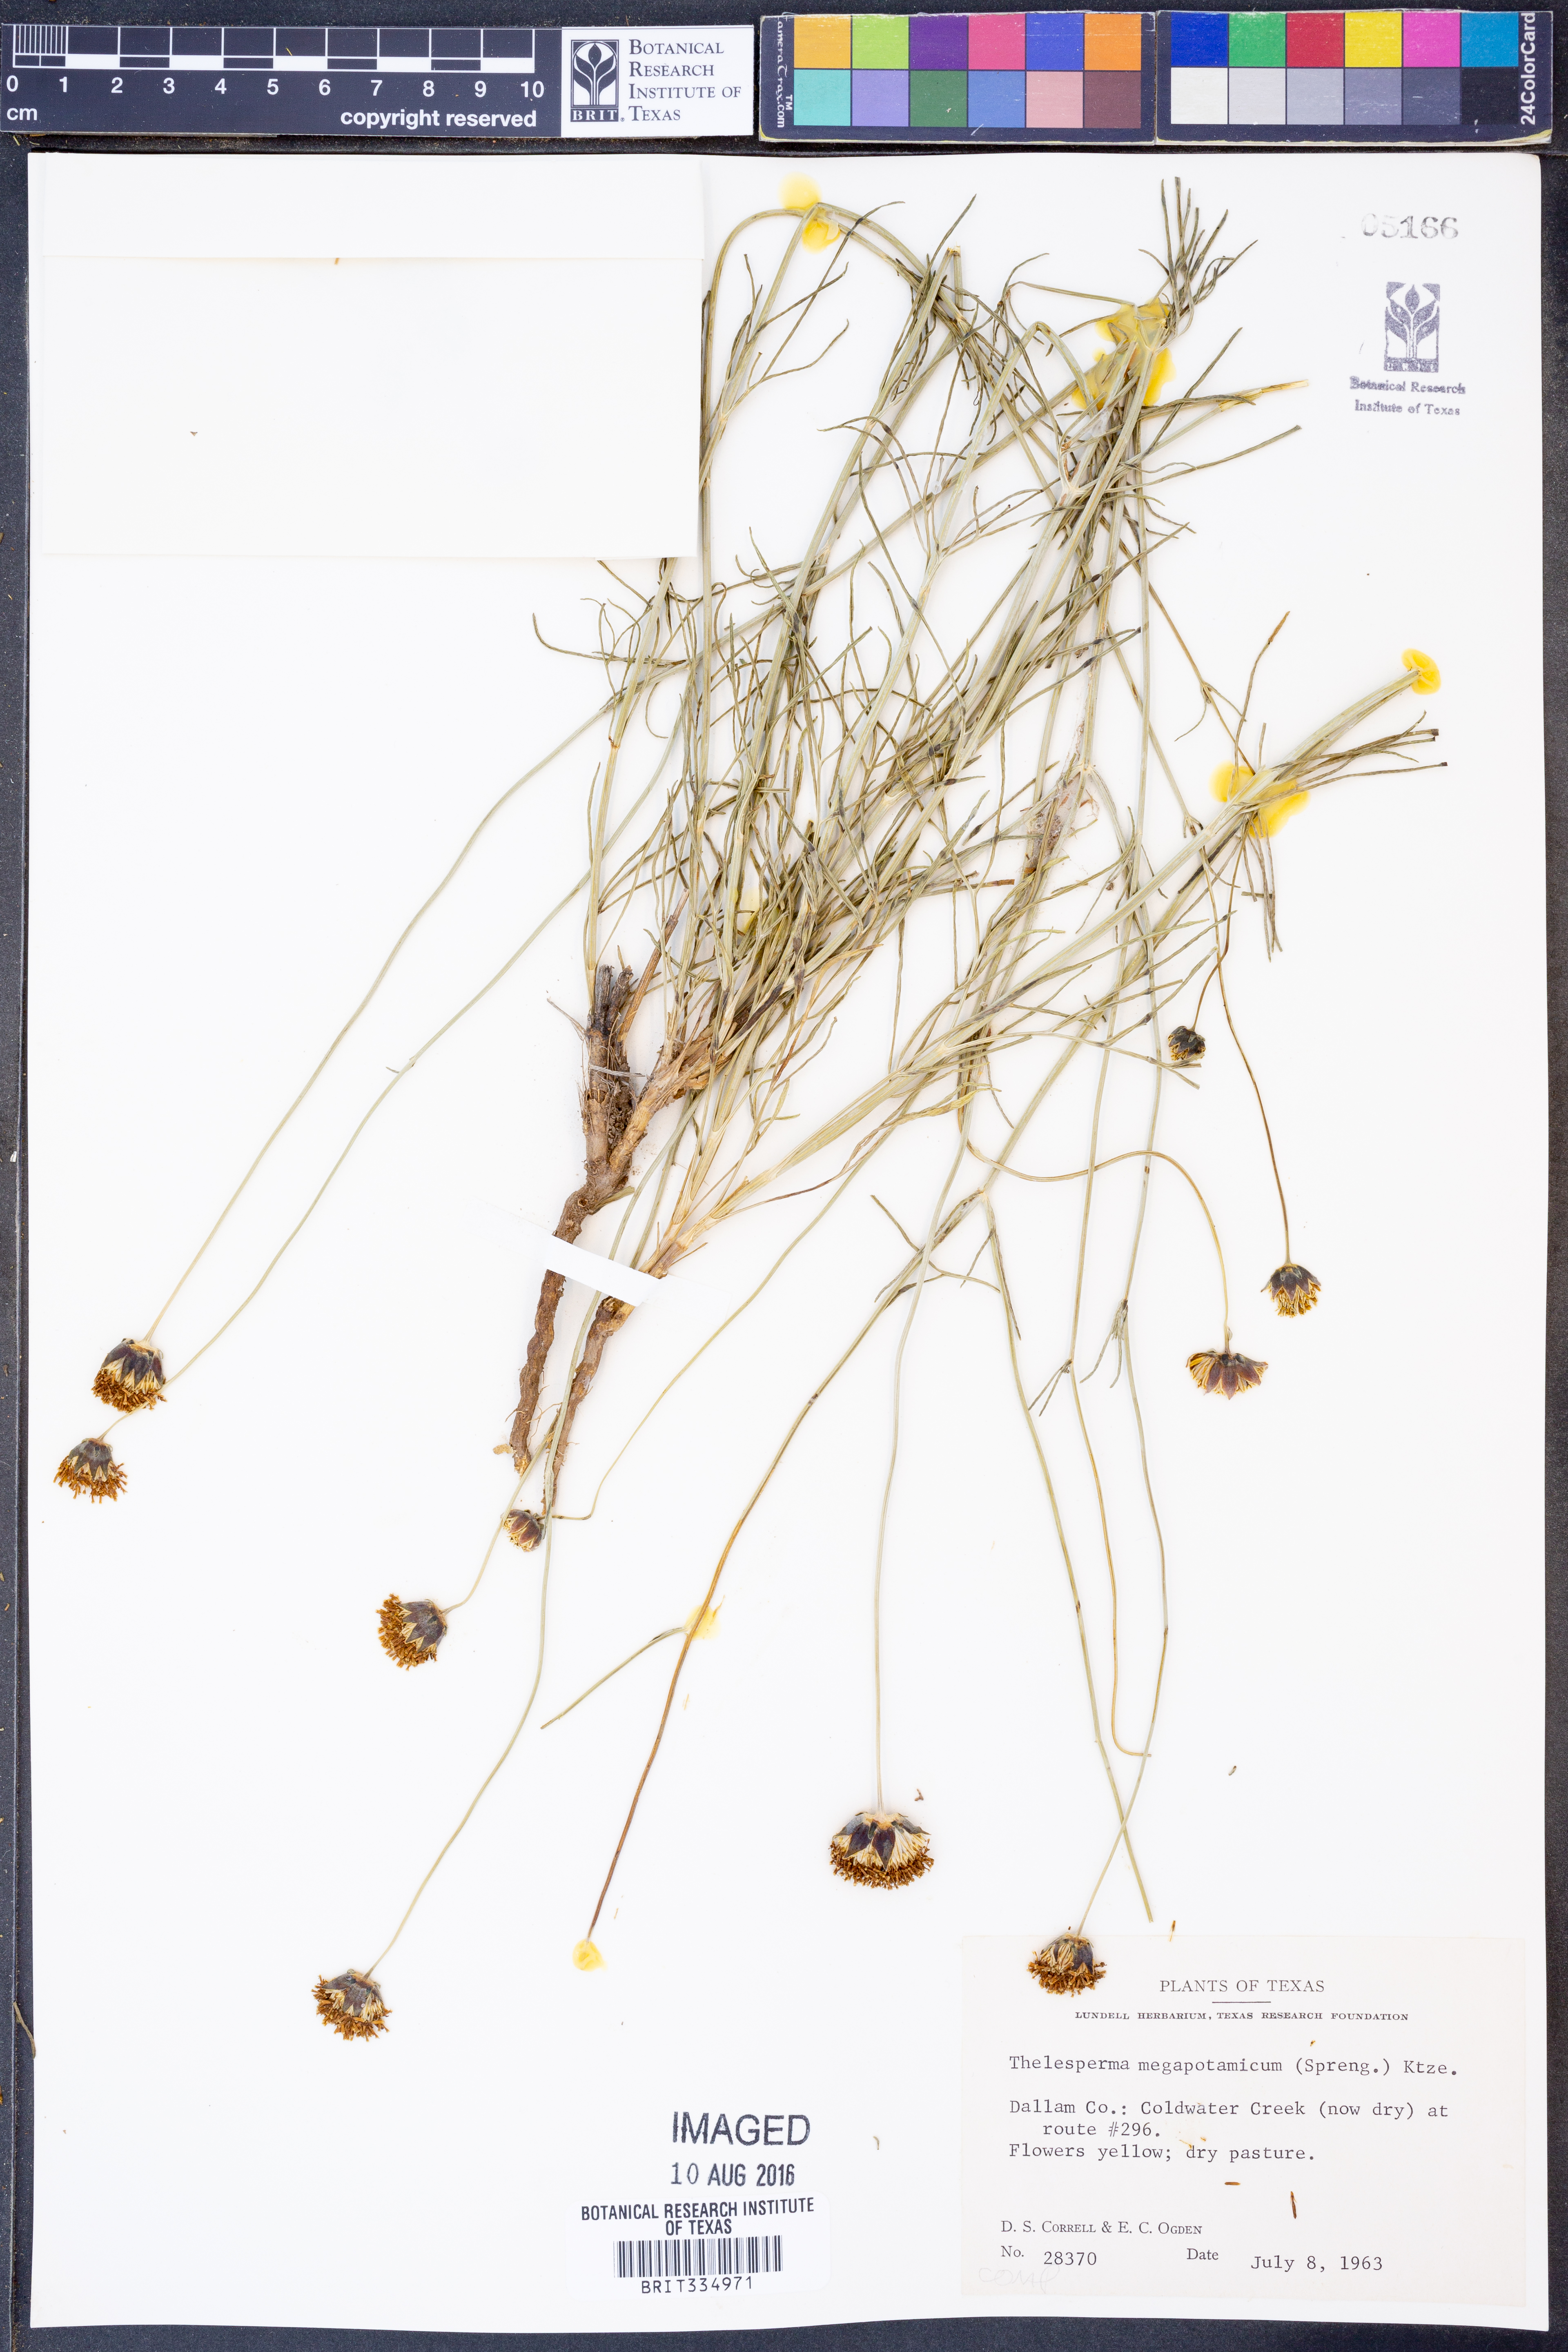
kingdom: Plantae
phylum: Tracheophyta
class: Magnoliopsida
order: Asterales
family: Asteraceae
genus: Thelesperma
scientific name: Thelesperma megapotamicum
